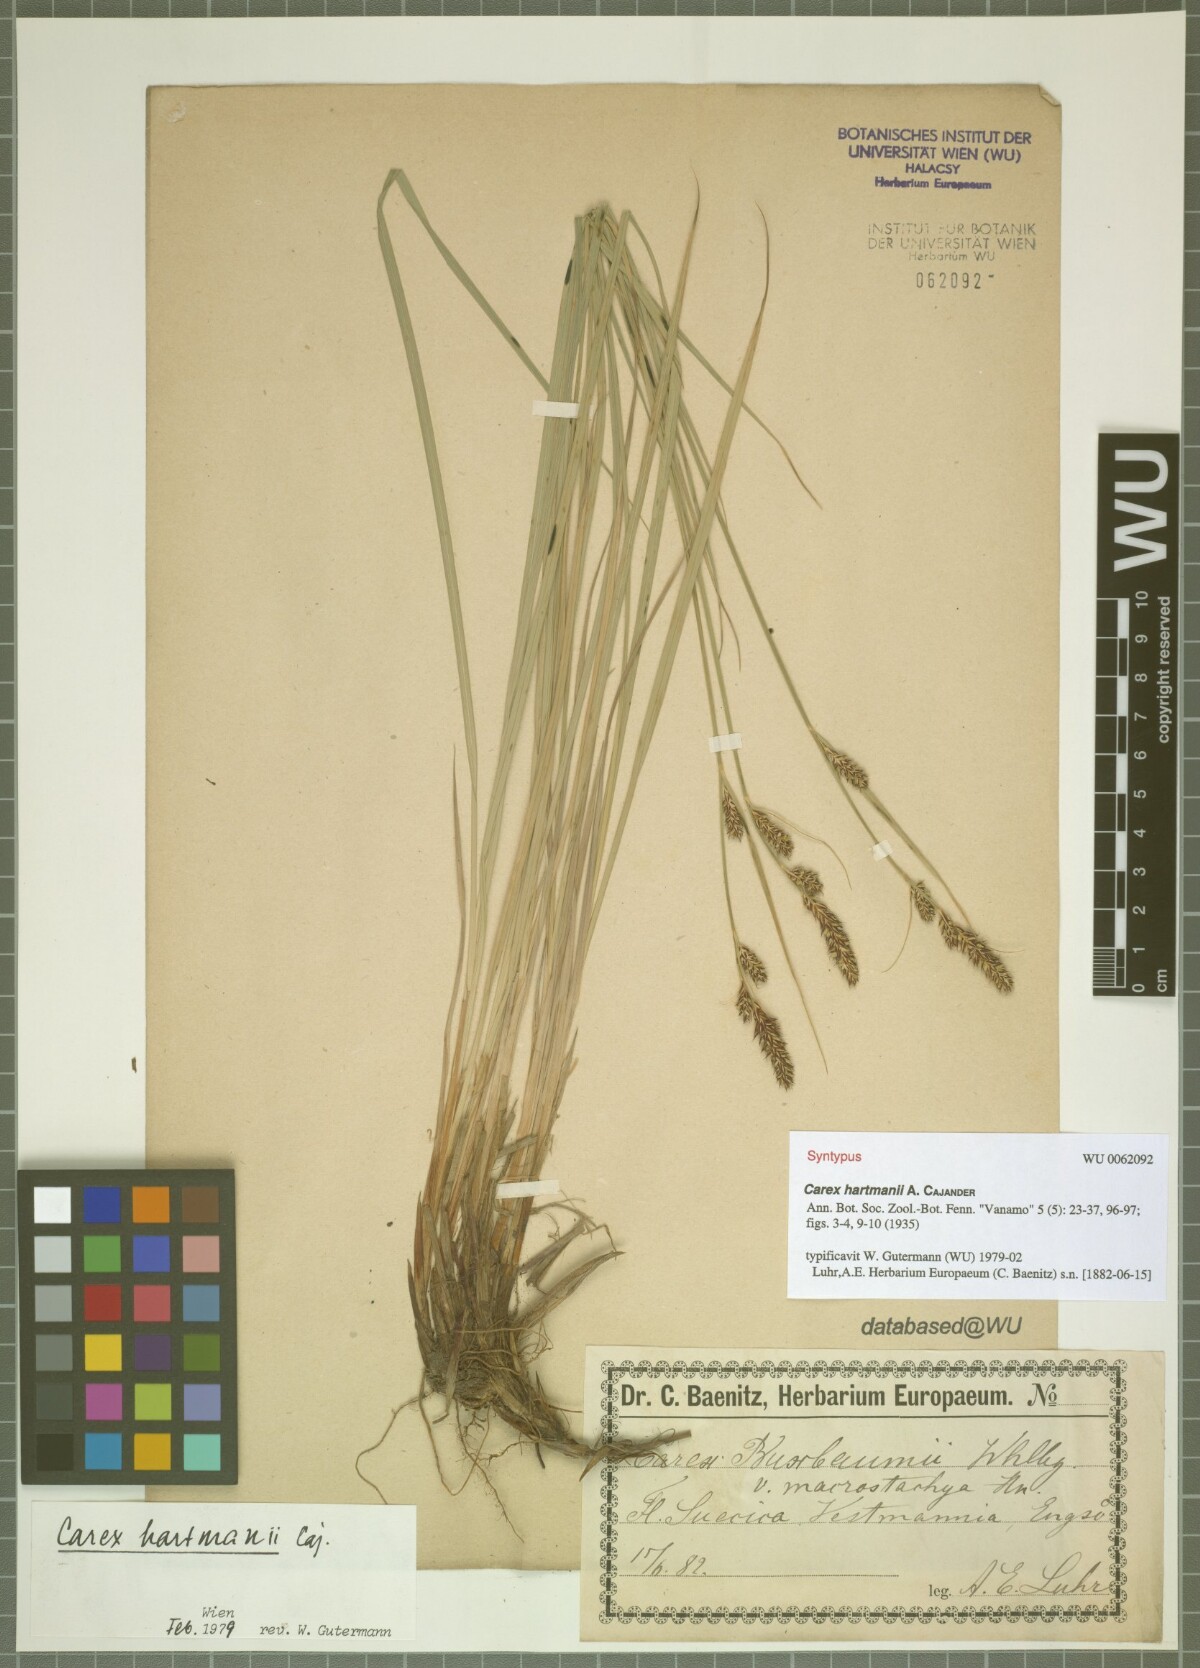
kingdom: Plantae
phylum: Tracheophyta
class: Liliopsida
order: Poales
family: Cyperaceae
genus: Carex
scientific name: Carex hartmaniorum
